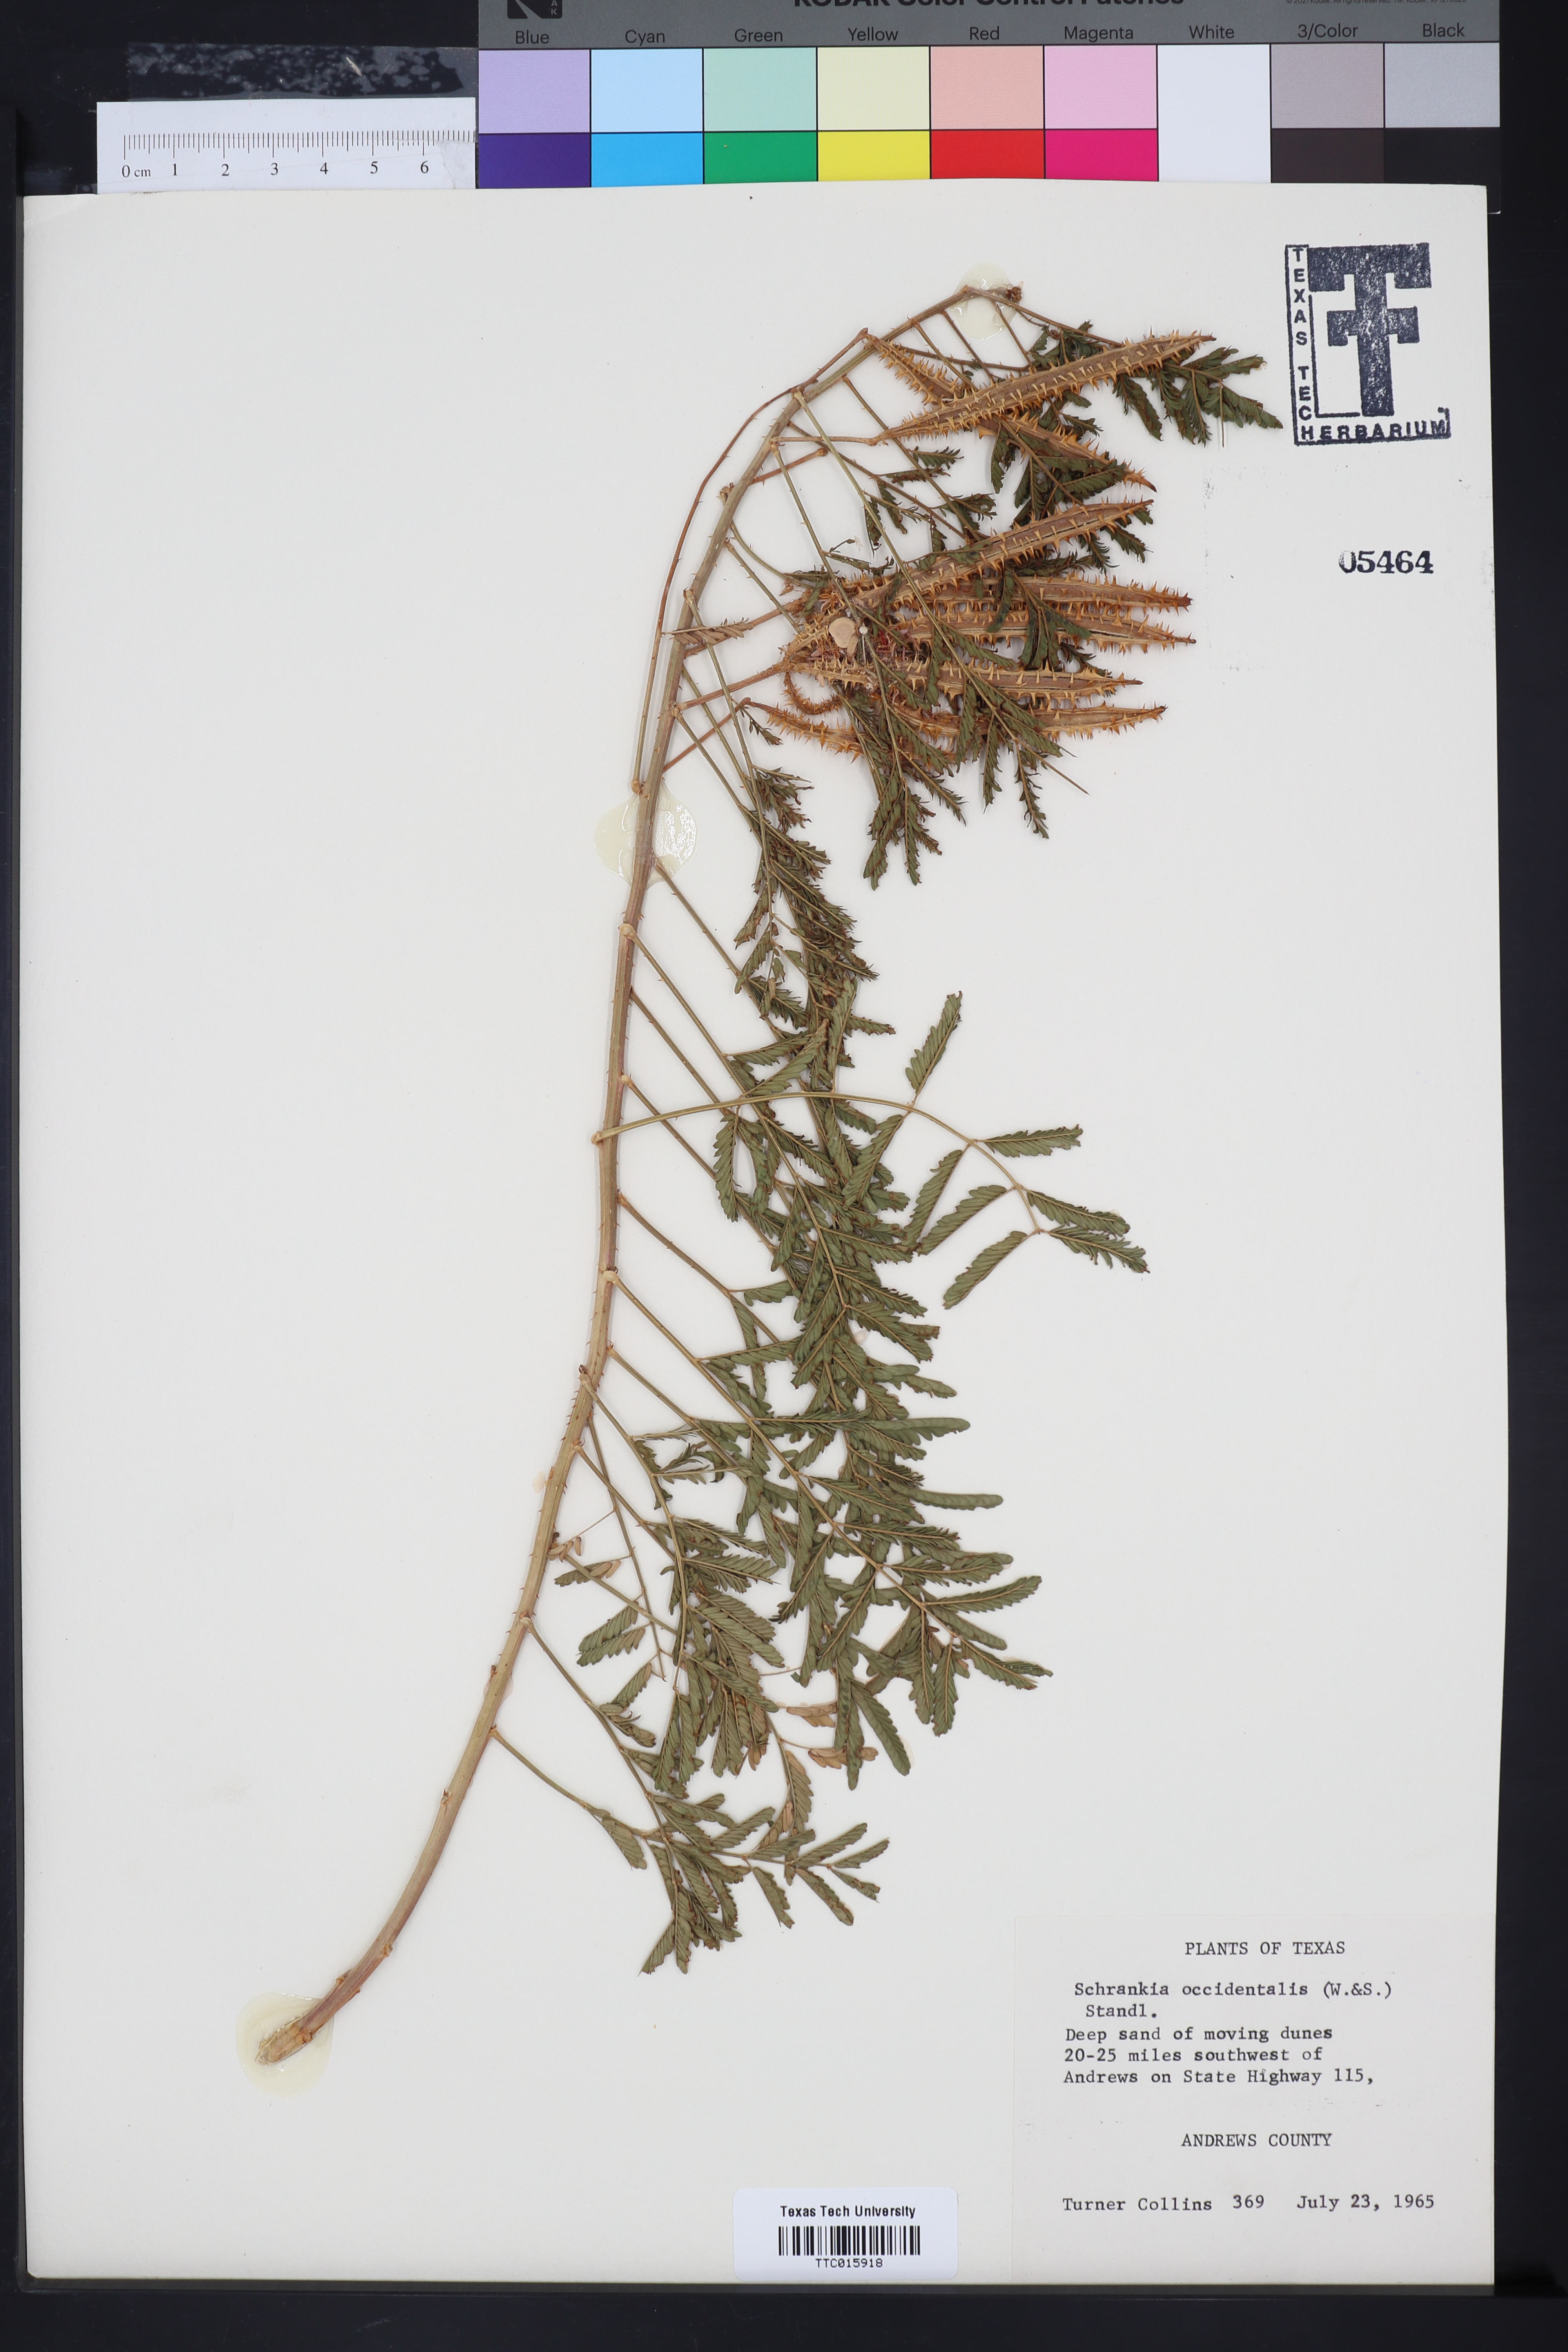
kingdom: Plantae
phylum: Tracheophyta
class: Magnoliopsida
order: Fabales
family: Fabaceae
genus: Mimosa
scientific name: Mimosa quadrivalvis
